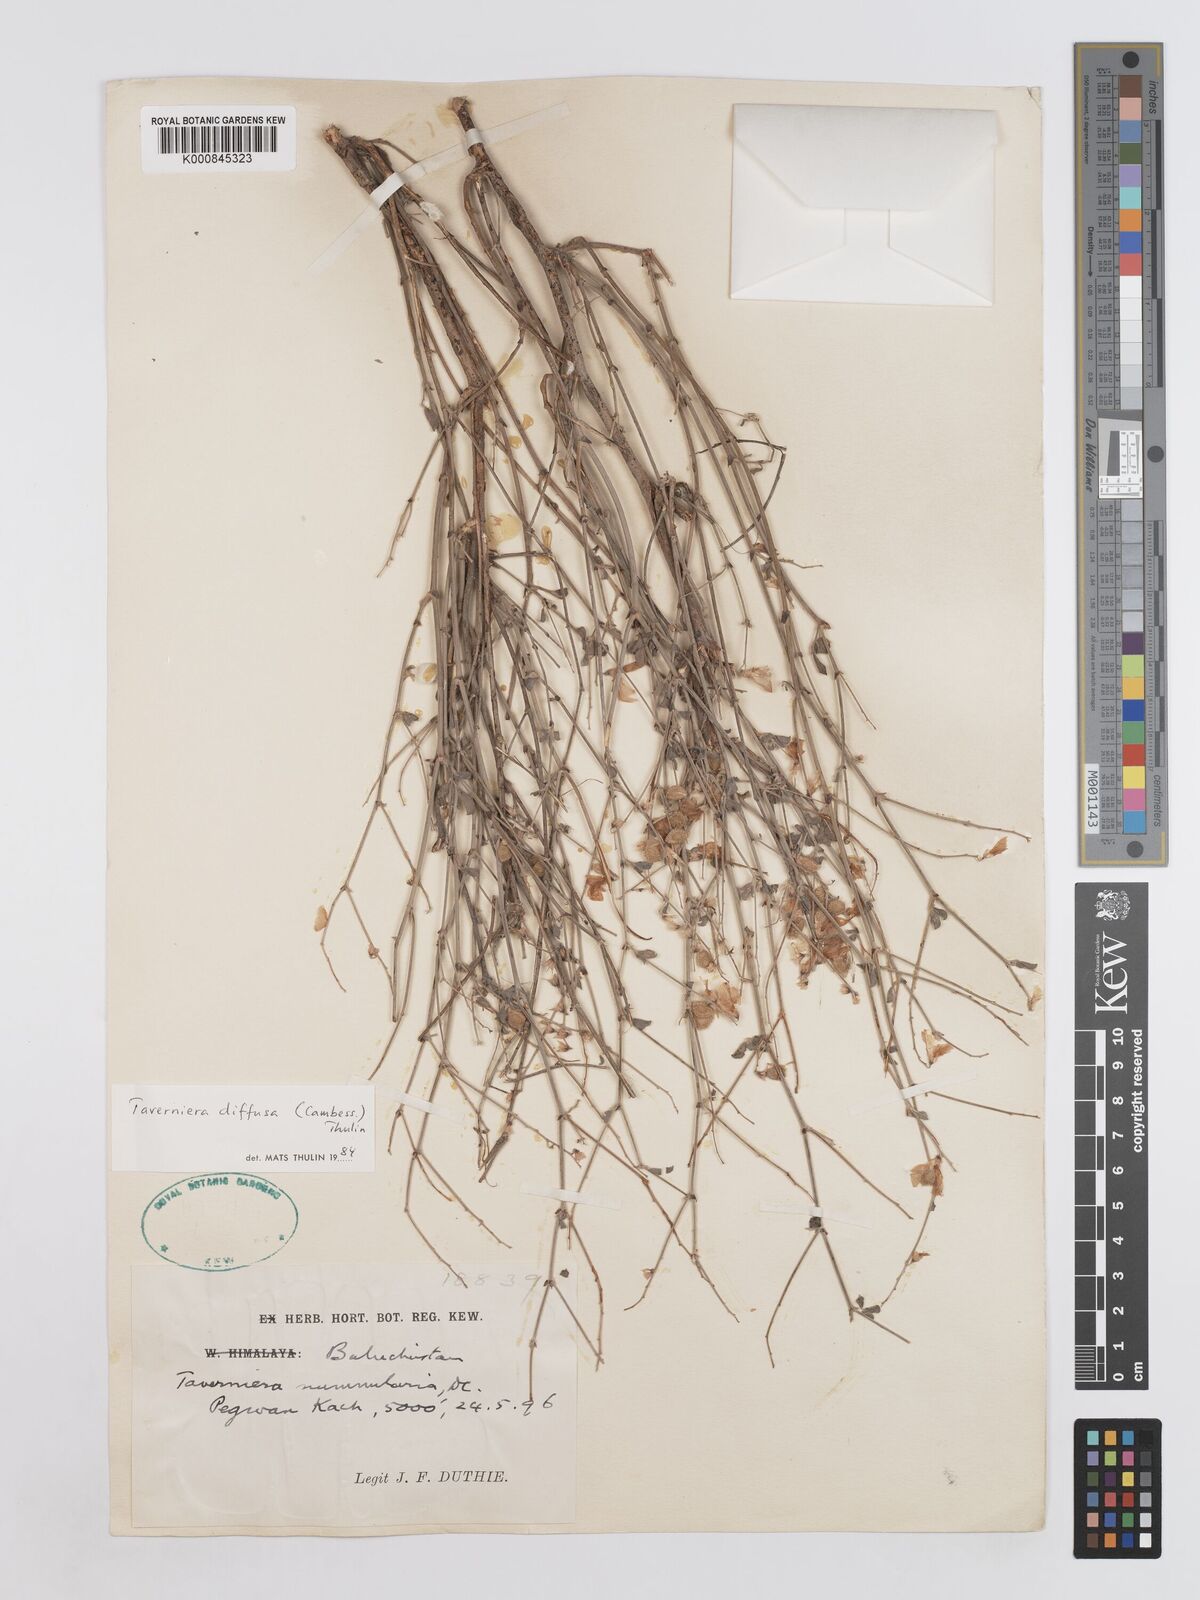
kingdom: Plantae
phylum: Tracheophyta
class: Magnoliopsida
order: Fabales
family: Fabaceae
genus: Taverniera
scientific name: Taverniera diffusa
